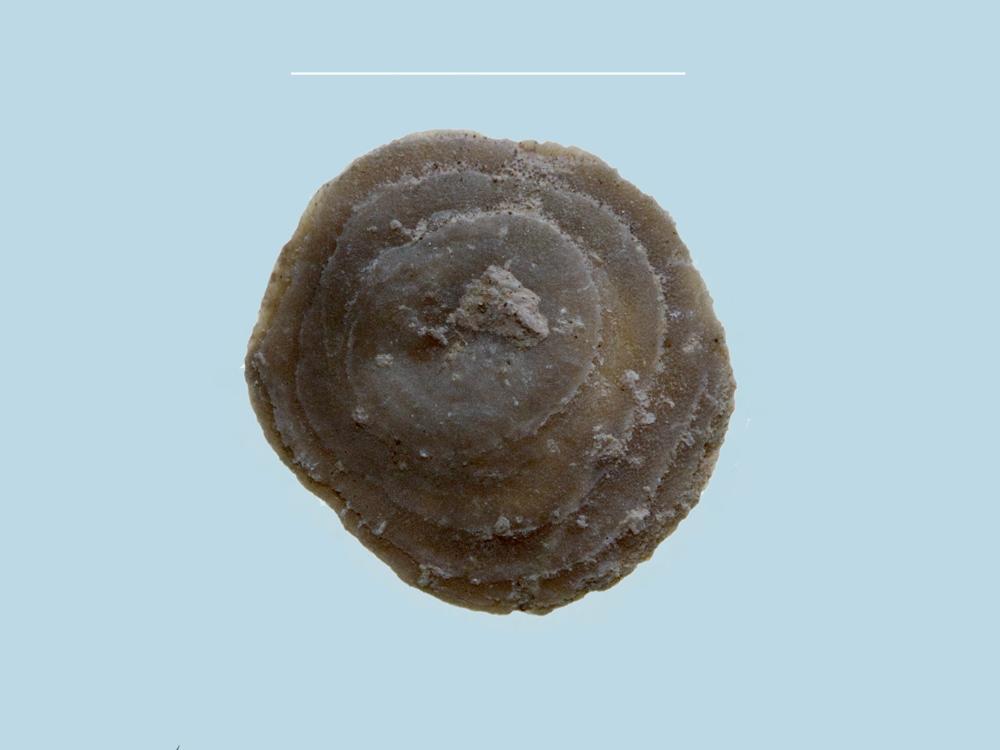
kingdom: Animalia
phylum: Brachiopoda
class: Craniata
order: Craniida
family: Craniidae
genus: Pseudocrania
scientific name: Pseudocrania
